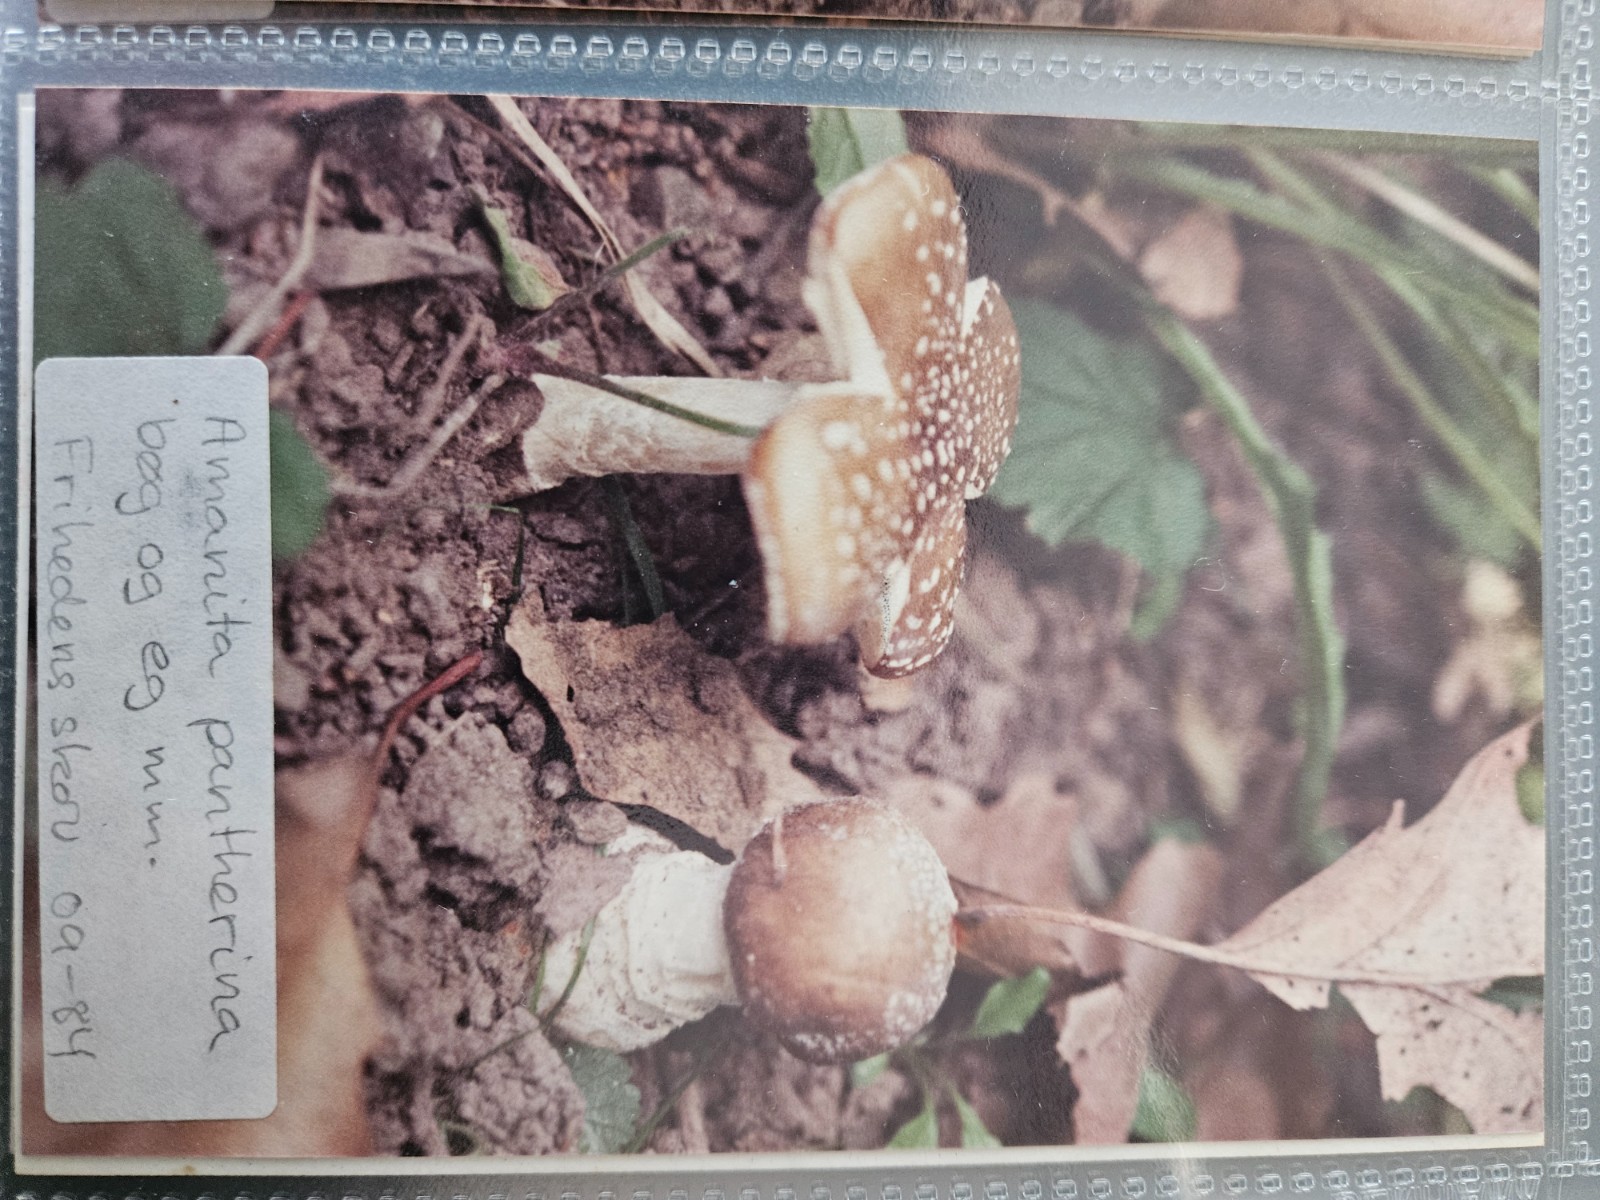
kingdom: Fungi
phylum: Basidiomycota
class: Agaricomycetes
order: Agaricales
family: Amanitaceae
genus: Amanita
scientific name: Amanita pantherina
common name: panter-fluesvamp
